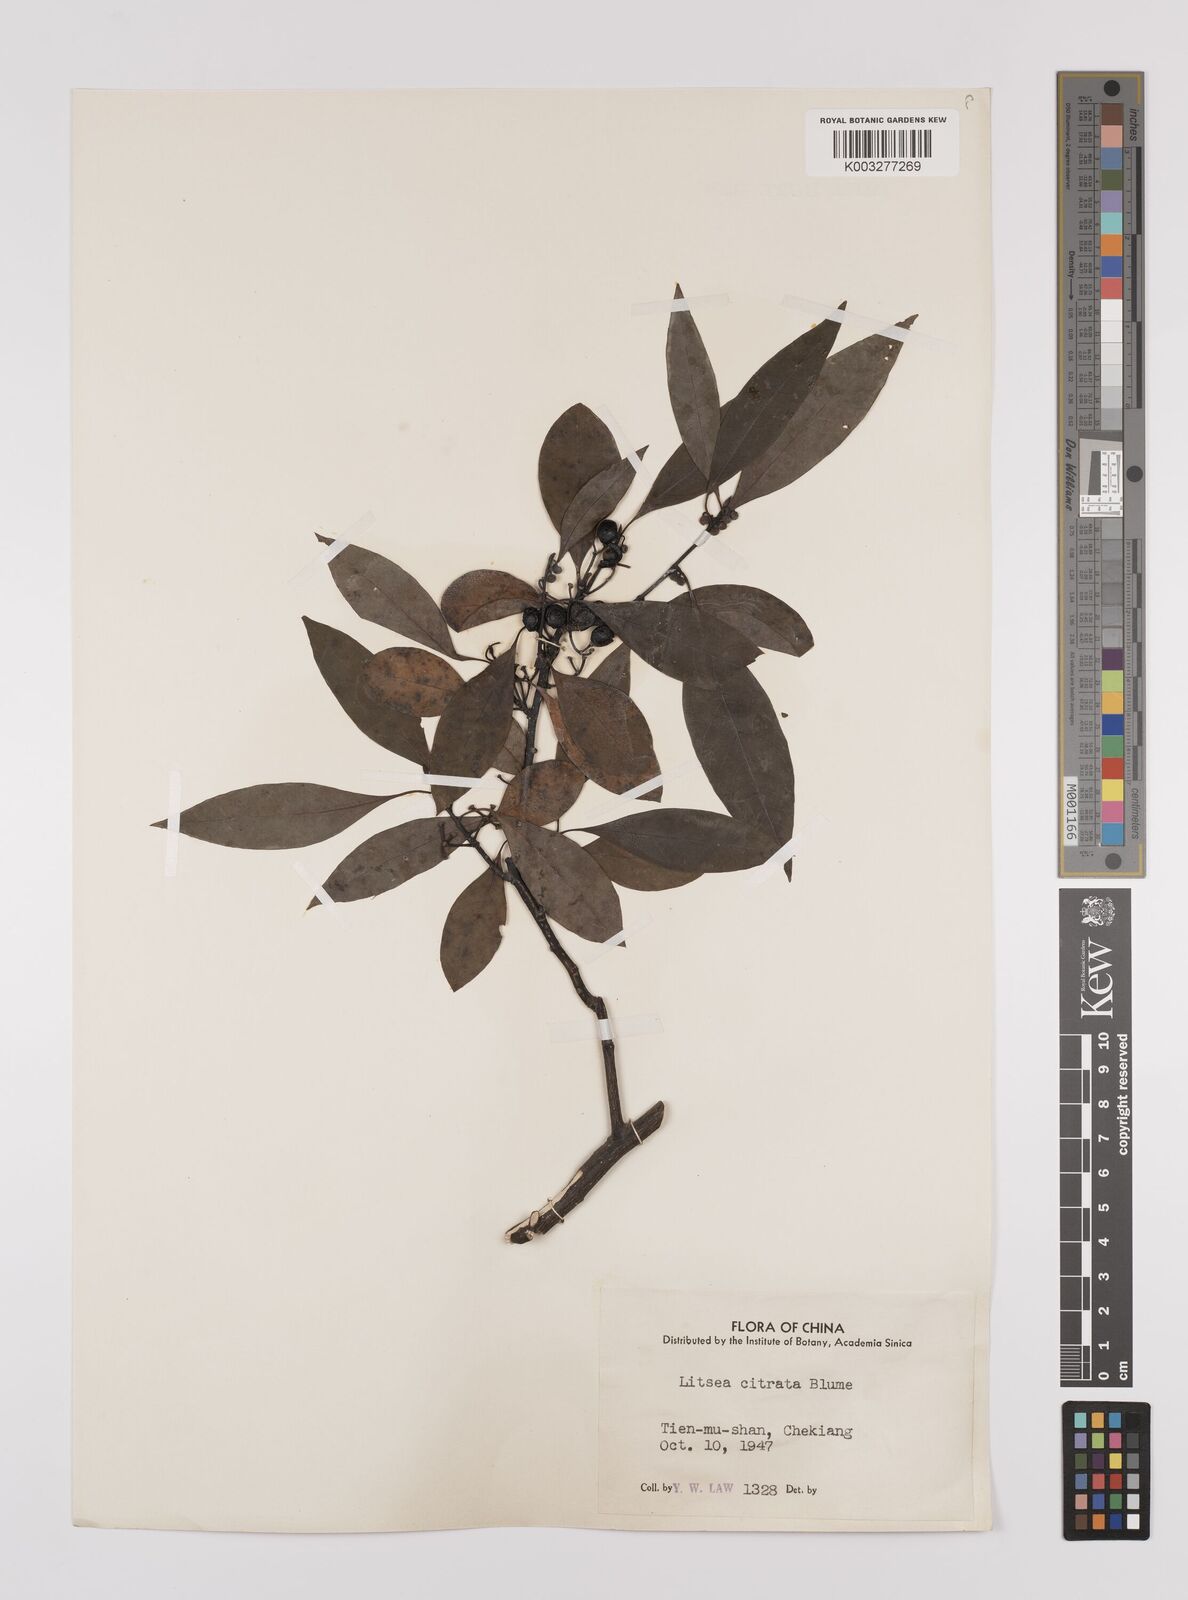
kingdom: Plantae
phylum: Tracheophyta
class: Magnoliopsida
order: Laurales
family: Lauraceae
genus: Litsea
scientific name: Litsea cubeba
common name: Mountain-pepper
